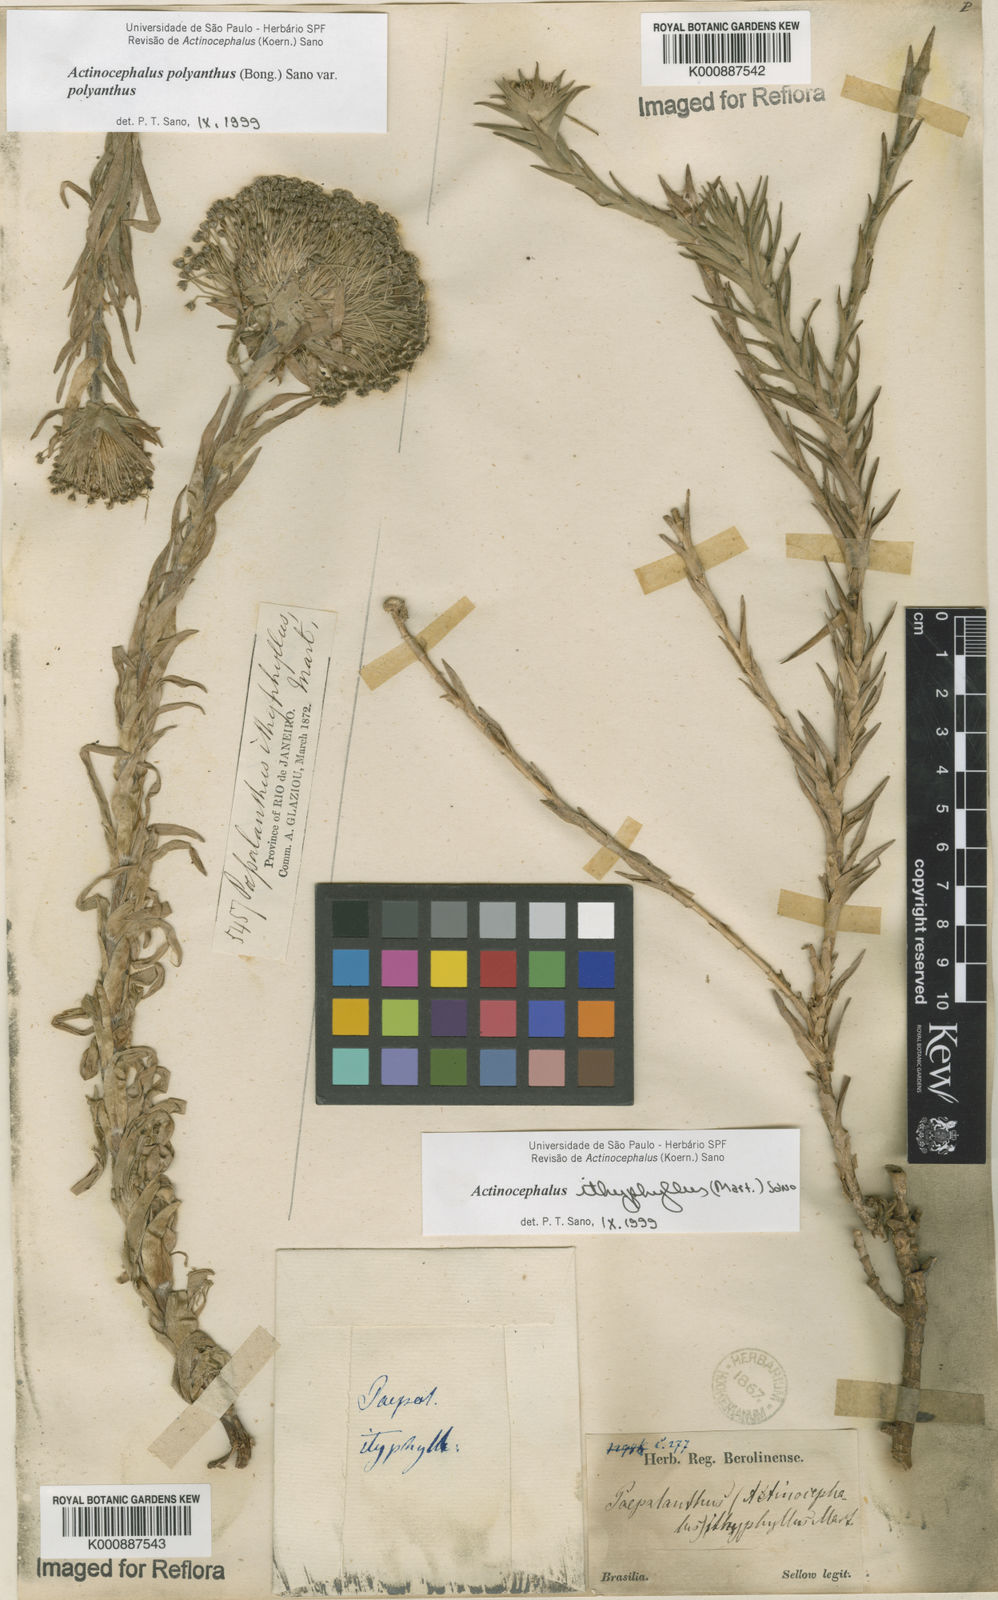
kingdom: Plantae
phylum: Tracheophyta
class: Liliopsida
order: Poales
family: Eriocaulaceae
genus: Paepalanthus
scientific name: Paepalanthus ithyphyllus
